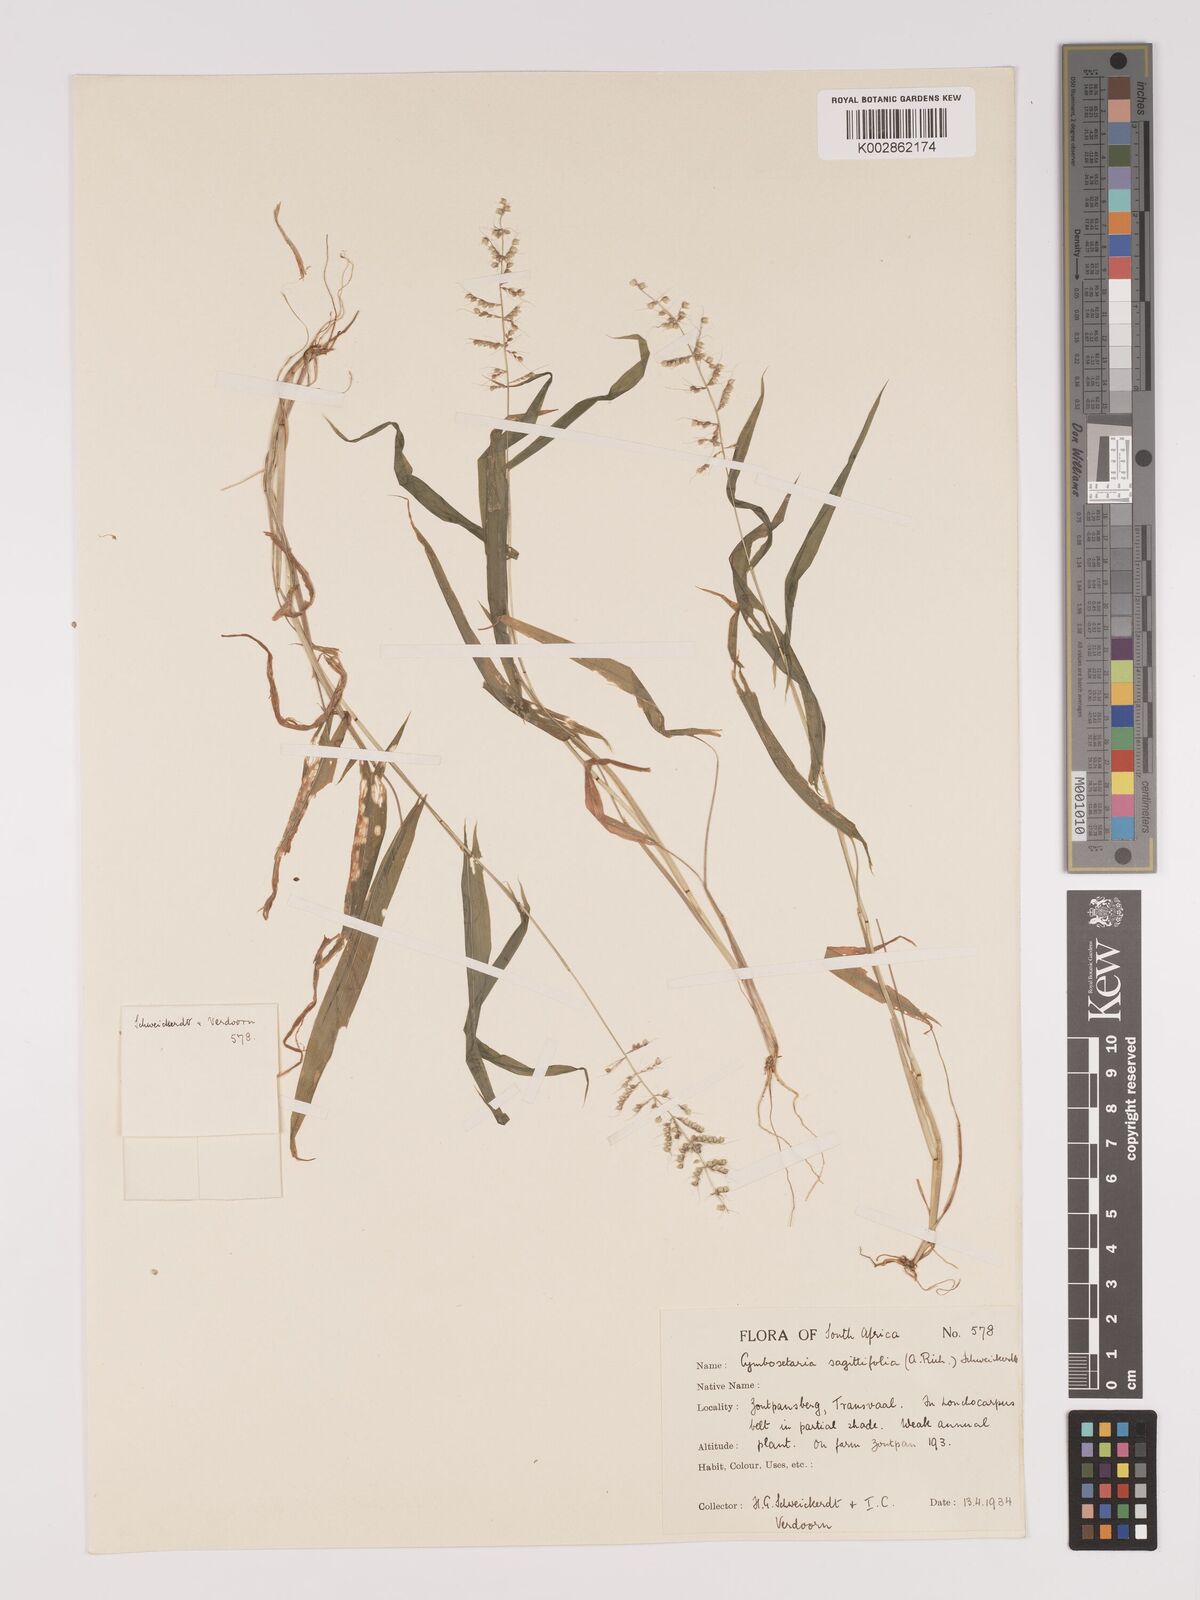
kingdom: Plantae
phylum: Tracheophyta
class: Liliopsida
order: Poales
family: Poaceae
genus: Setaria
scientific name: Setaria sagittifolia
